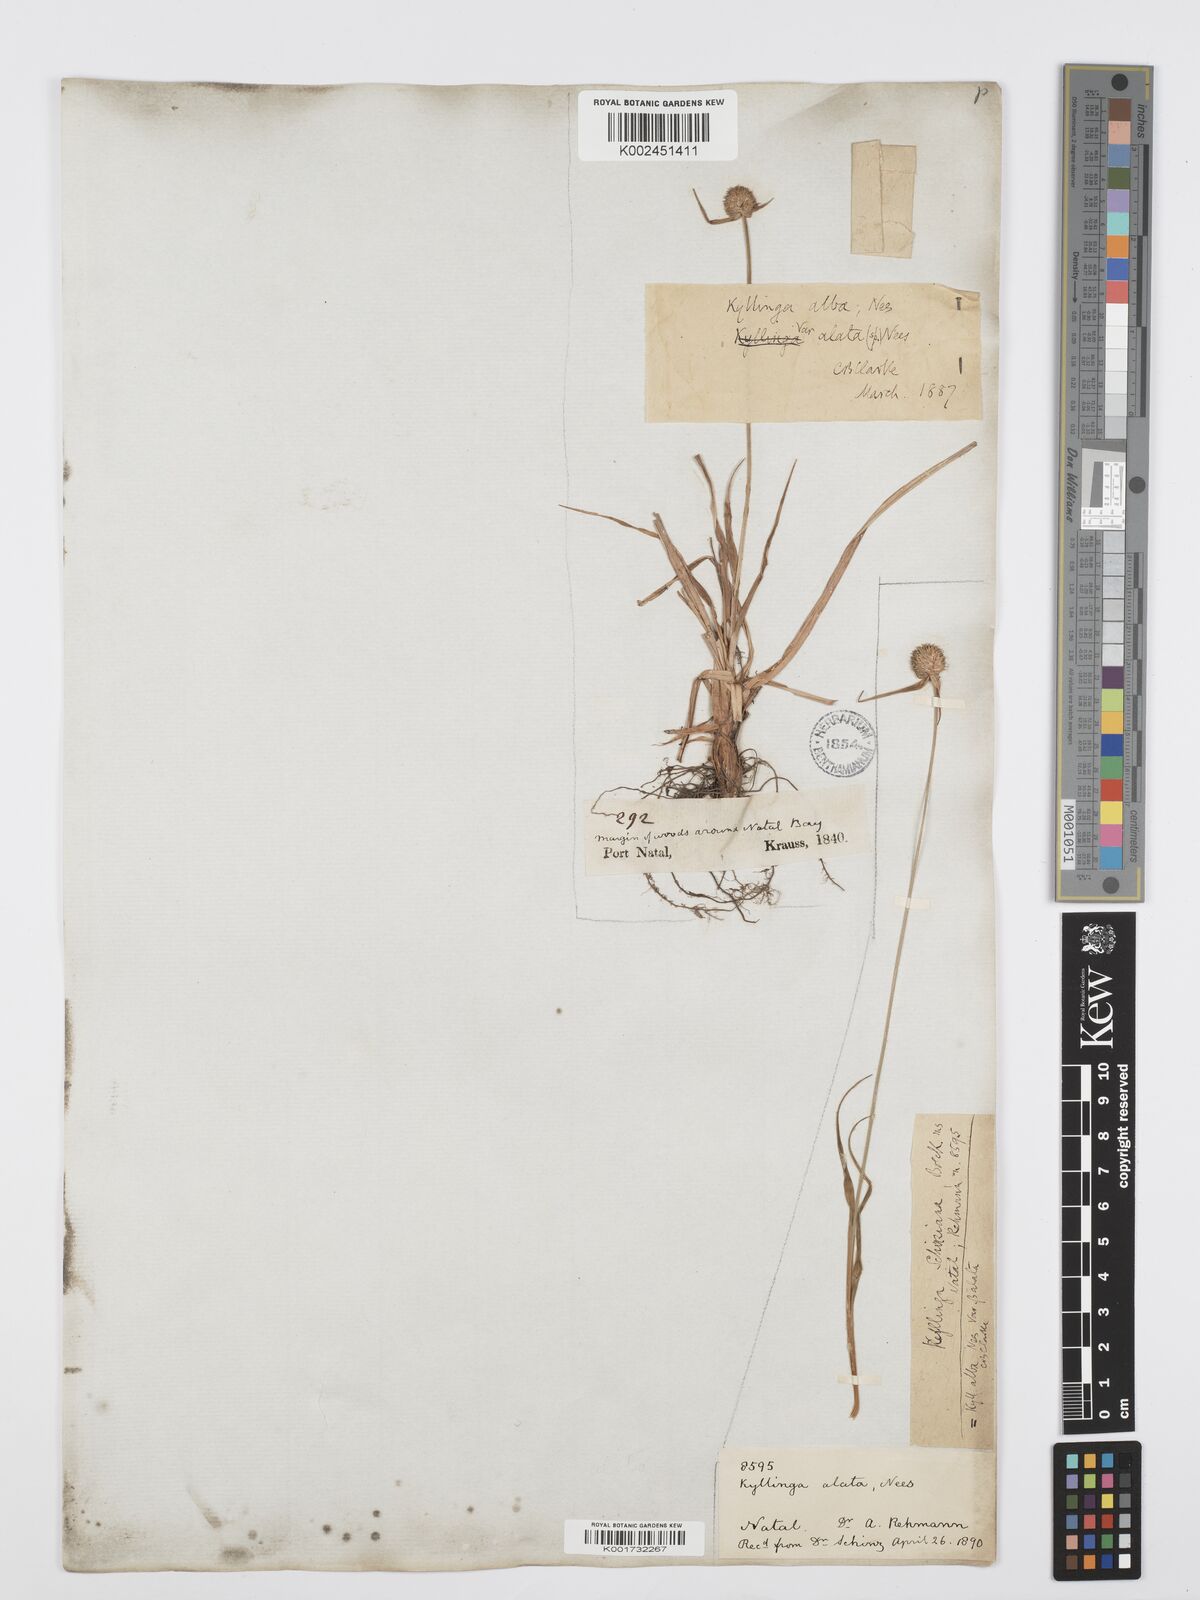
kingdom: Plantae
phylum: Tracheophyta
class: Liliopsida
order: Poales
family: Cyperaceae
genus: Cyperus
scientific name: Cyperus
